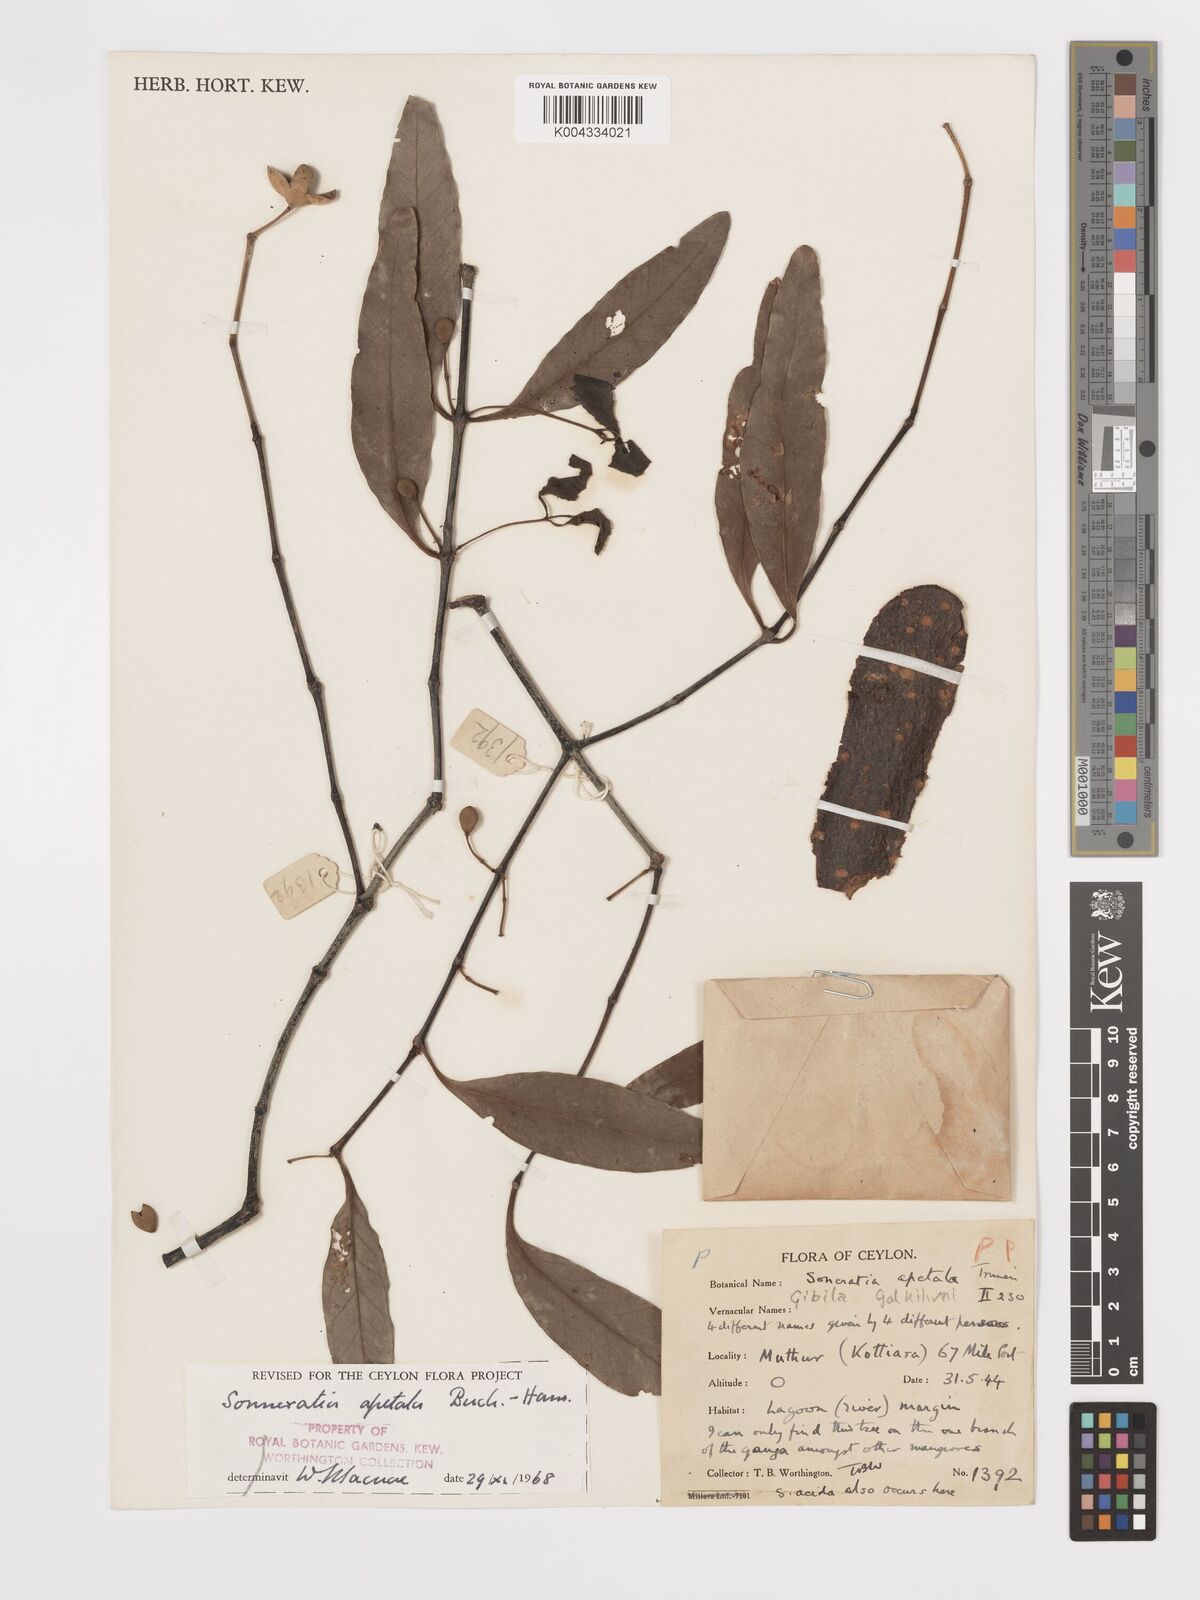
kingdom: Plantae
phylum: Tracheophyta
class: Magnoliopsida
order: Myrtales
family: Lythraceae
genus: Sonneratia
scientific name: Sonneratia apetala
